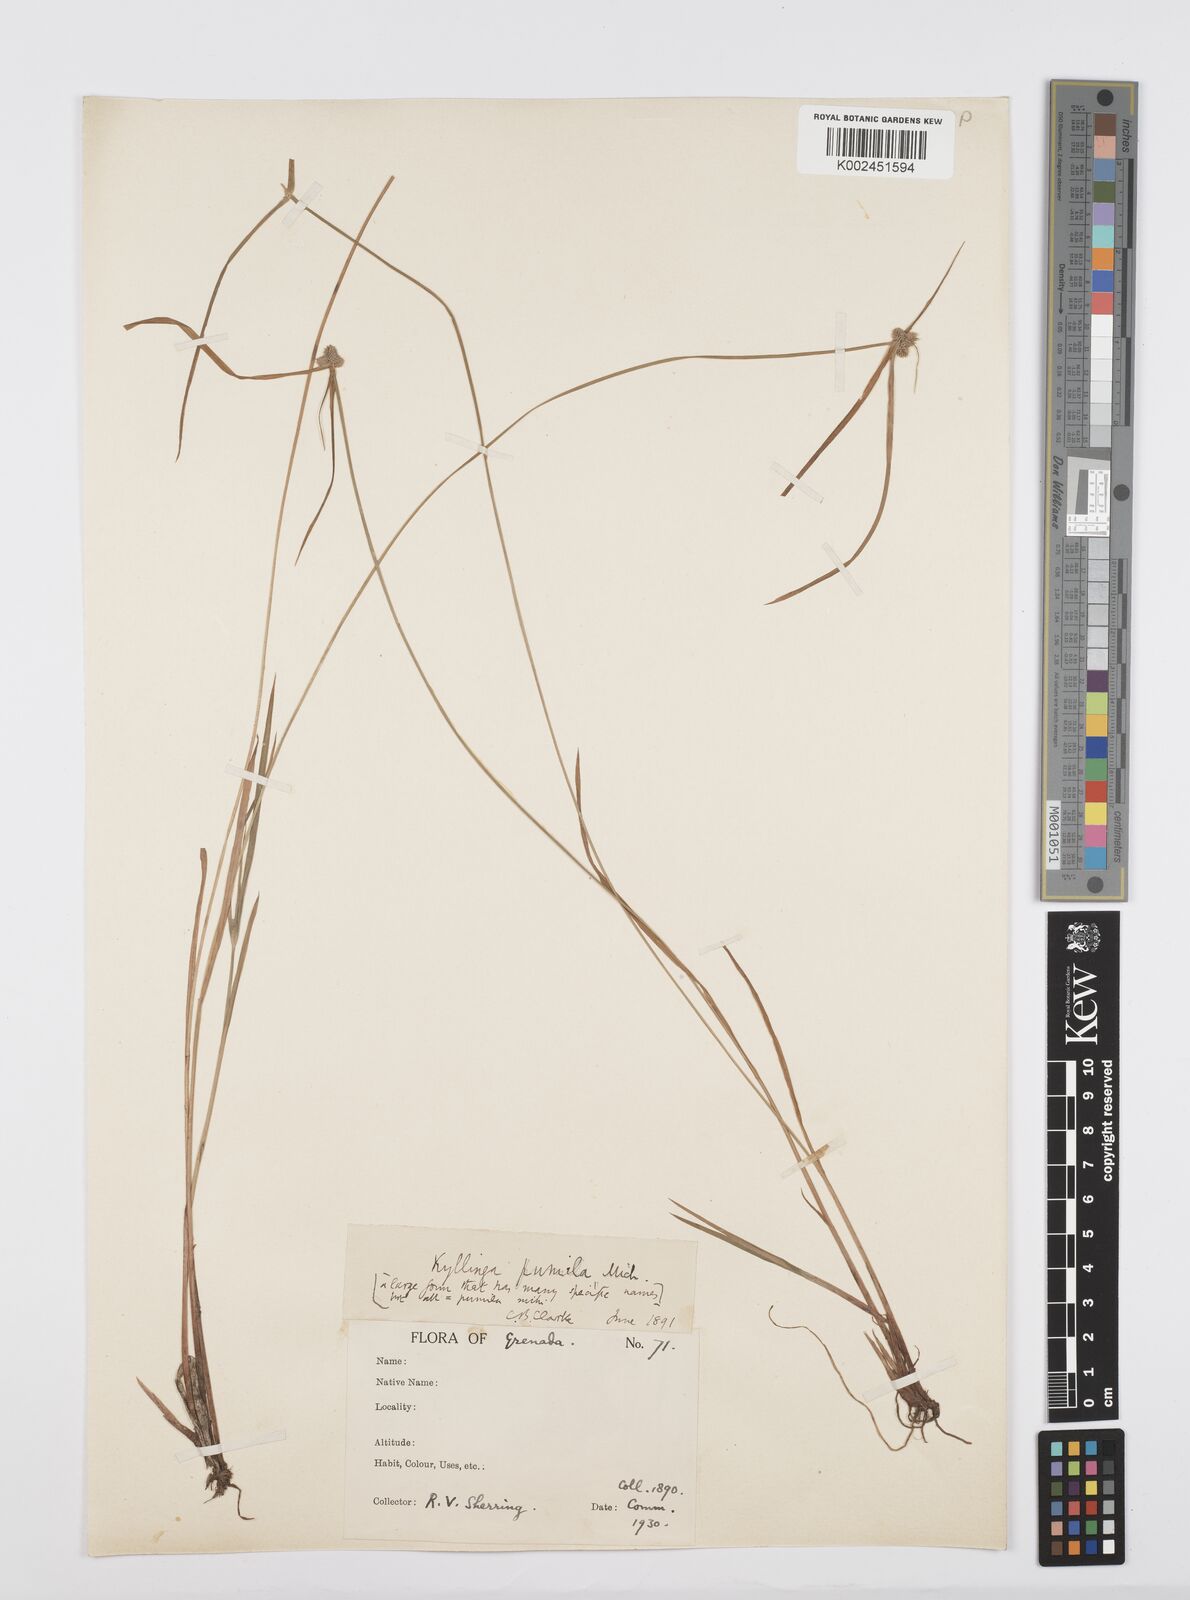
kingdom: Plantae
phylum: Tracheophyta
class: Liliopsida
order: Poales
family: Cyperaceae
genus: Cyperus
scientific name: Cyperus
